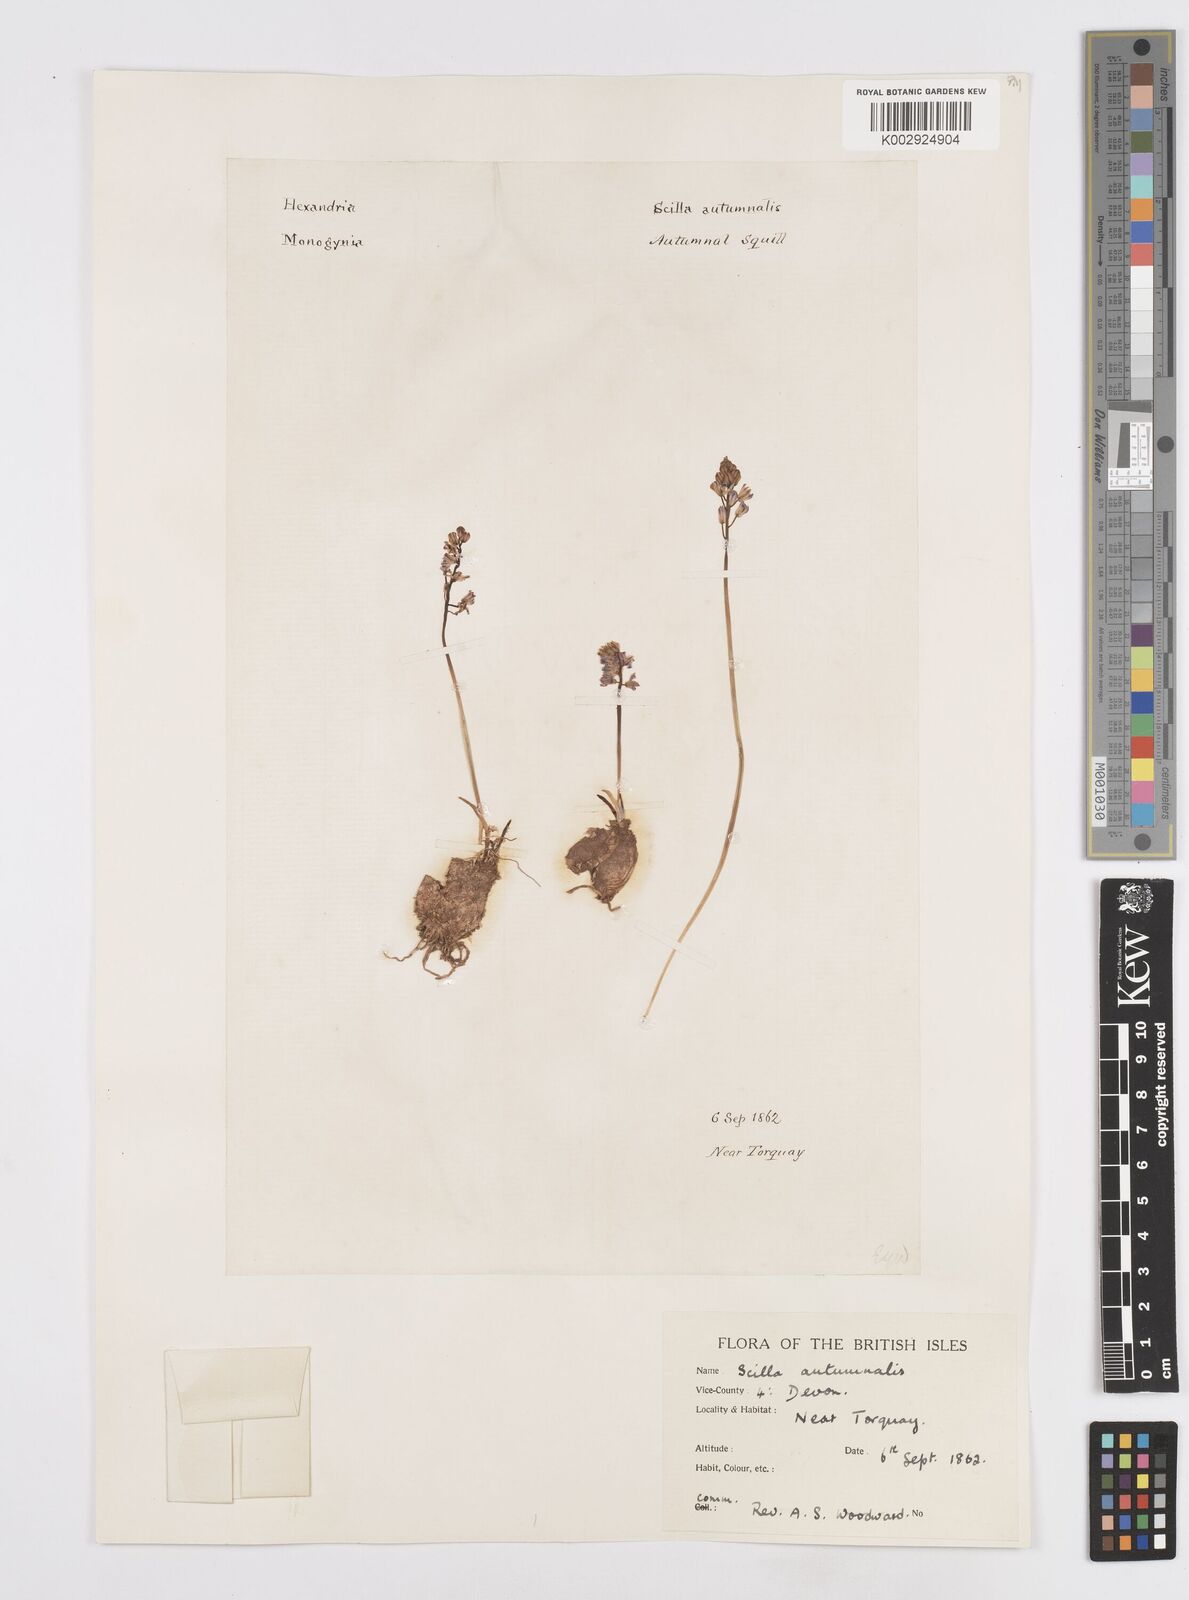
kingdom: Plantae
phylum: Tracheophyta
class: Liliopsida
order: Asparagales
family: Asparagaceae
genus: Prospero
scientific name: Prospero autumnale
